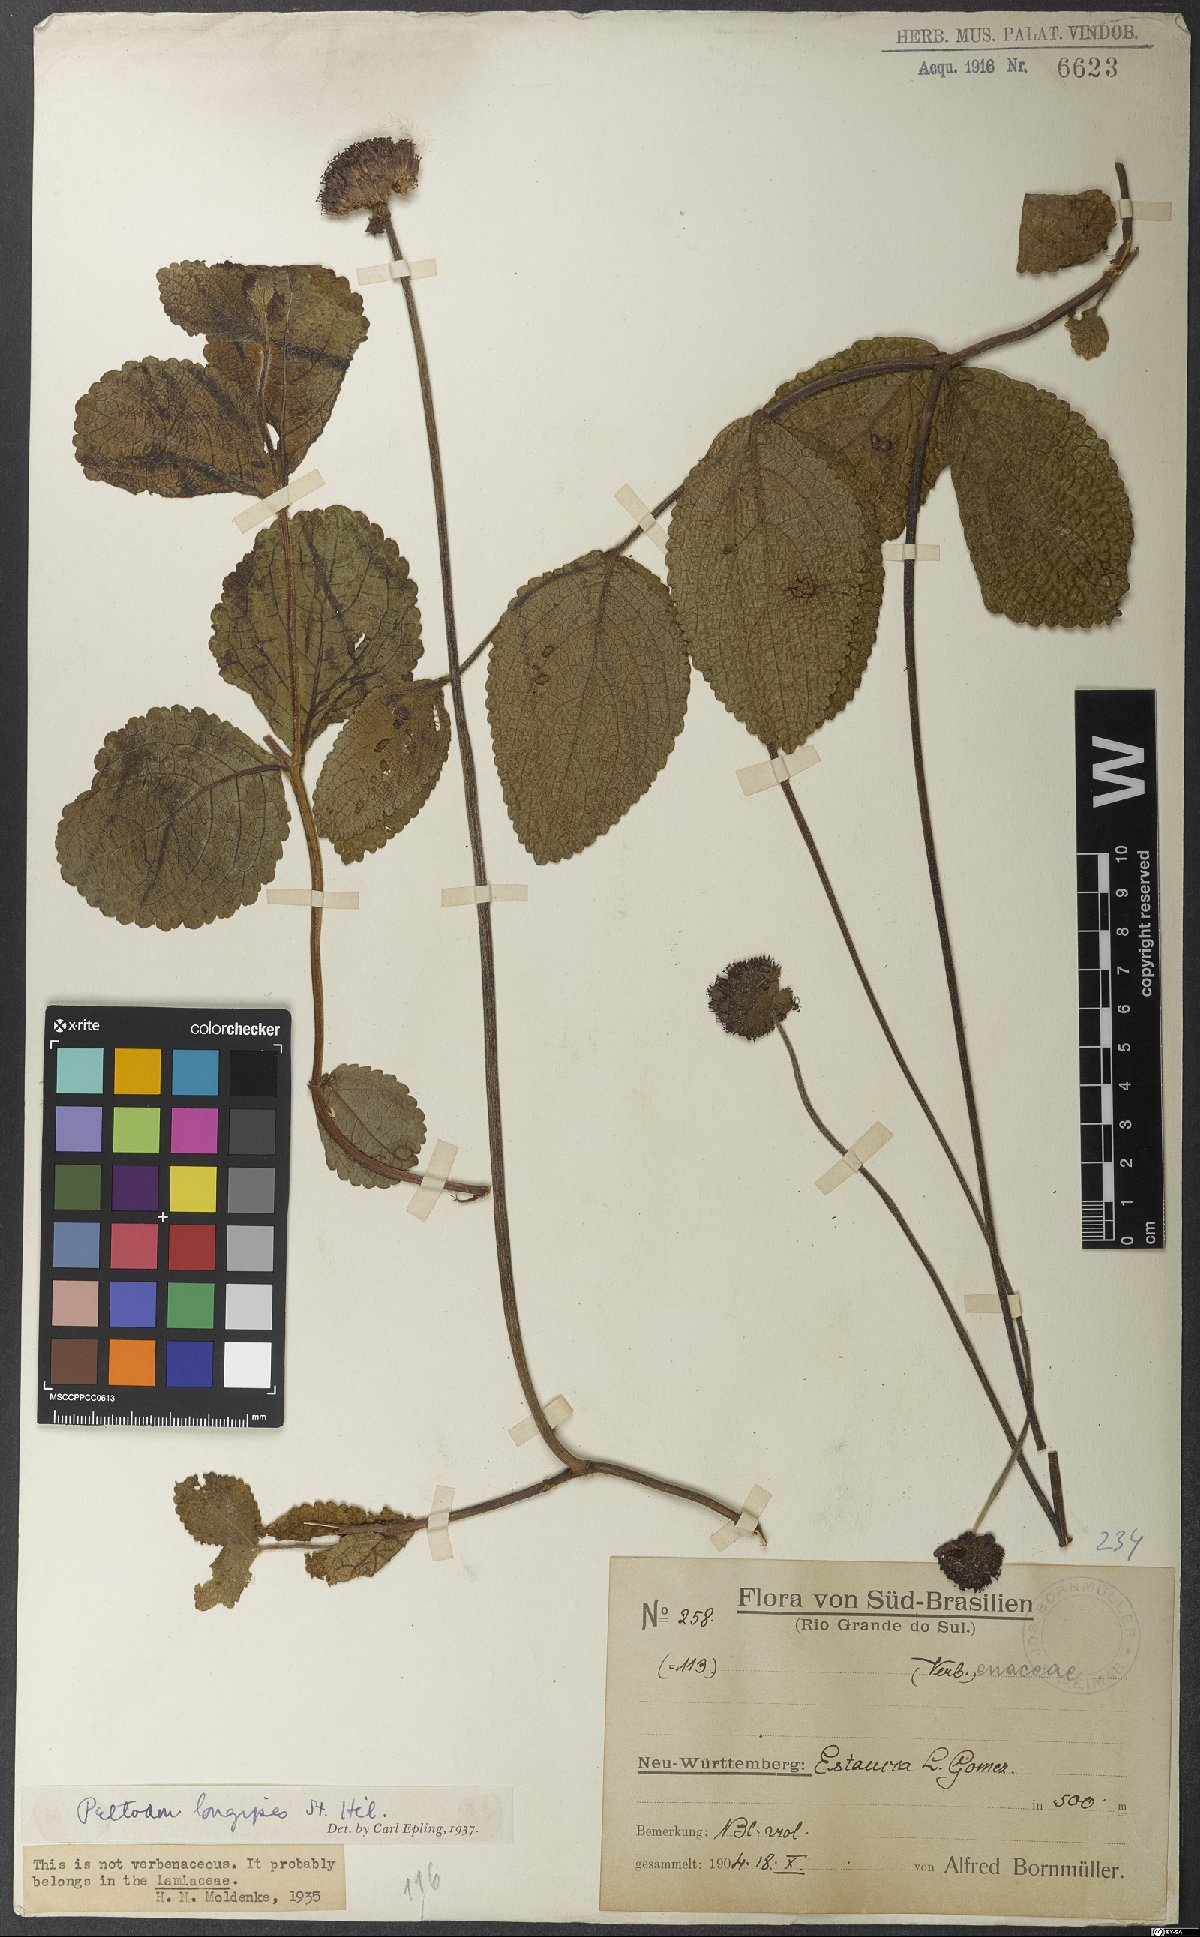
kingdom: Plantae
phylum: Tracheophyta
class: Magnoliopsida
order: Lamiales
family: Lamiaceae
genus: Hyptis
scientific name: Hyptis comaroides
